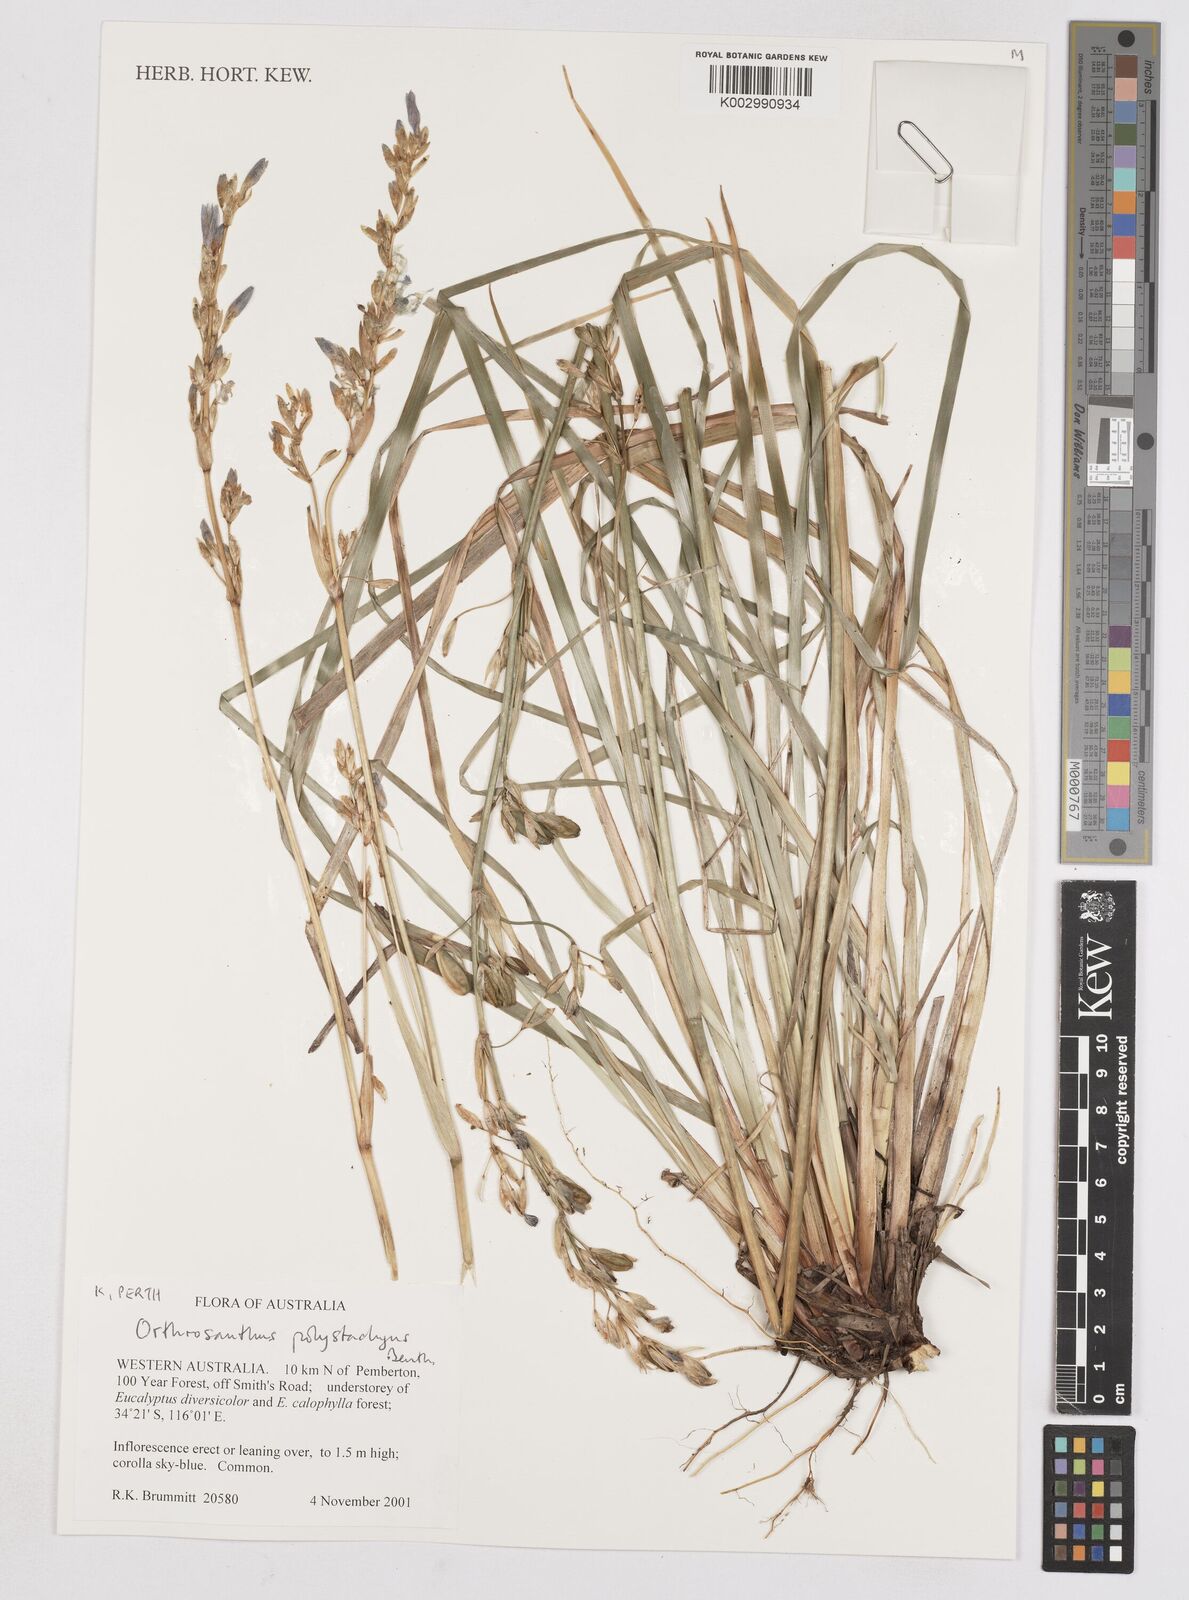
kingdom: Plantae
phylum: Tracheophyta
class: Liliopsida
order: Asparagales
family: Iridaceae
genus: Orthrosanthus
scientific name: Orthrosanthus polystachyus
